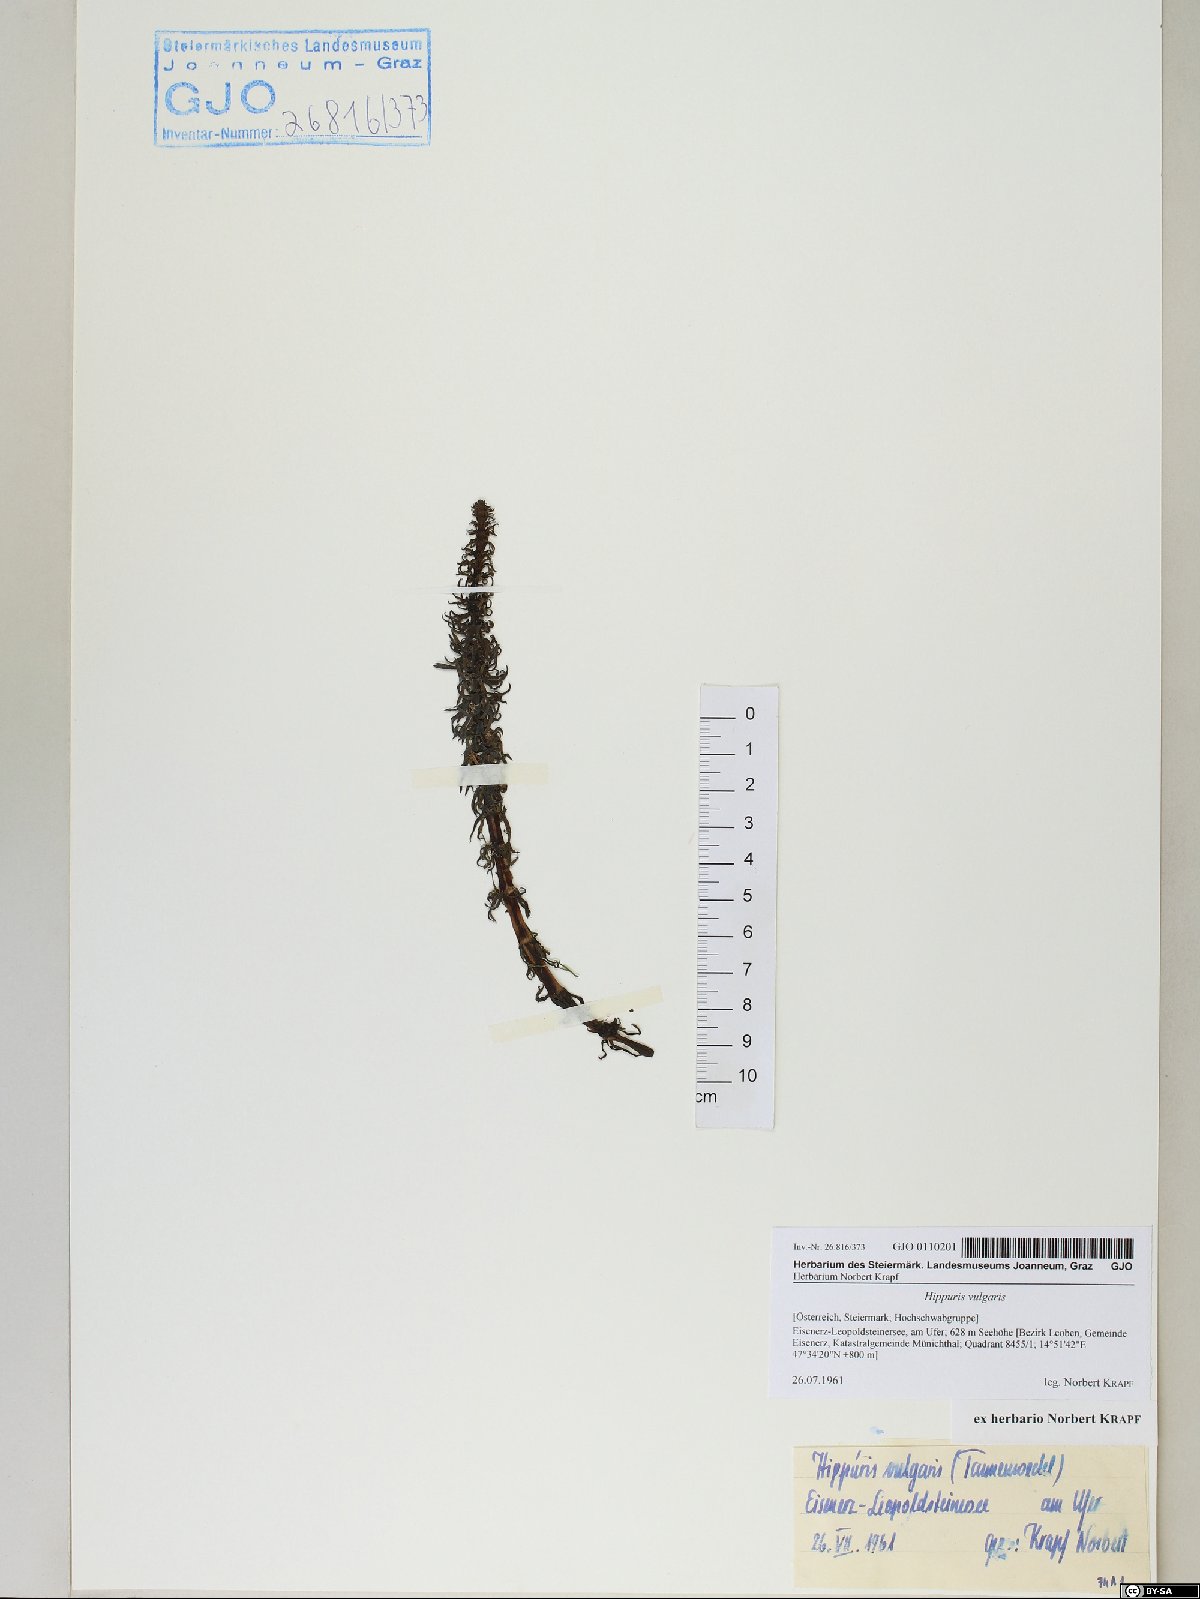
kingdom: Plantae
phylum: Tracheophyta
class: Magnoliopsida
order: Lamiales
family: Plantaginaceae
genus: Hippuris
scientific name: Hippuris vulgaris
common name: Mare's-tail
